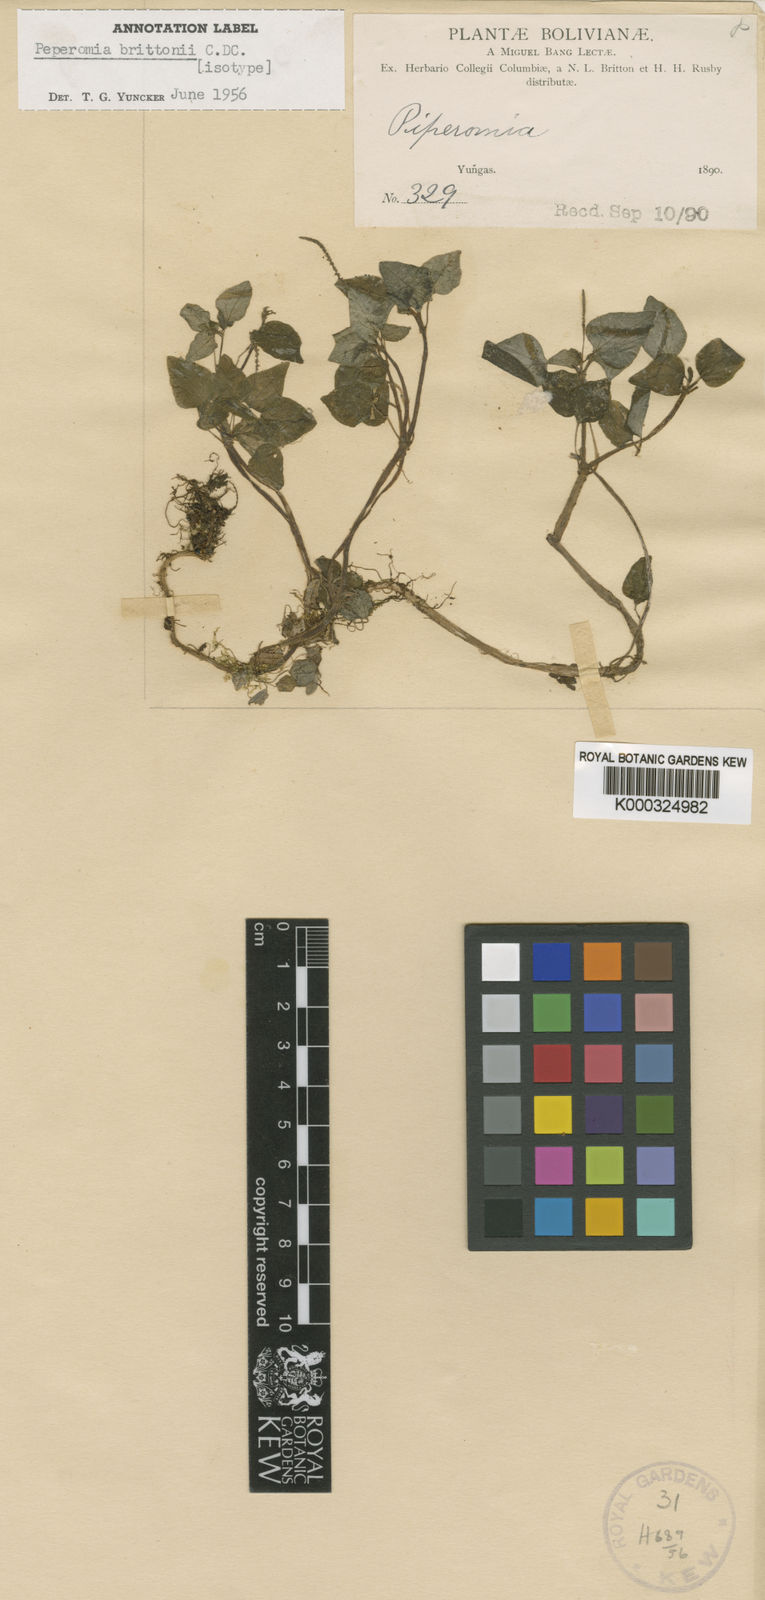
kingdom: Plantae
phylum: Tracheophyta
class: Magnoliopsida
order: Piperales
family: Piperaceae
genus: Peperomia
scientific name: Peperomia brittonii
